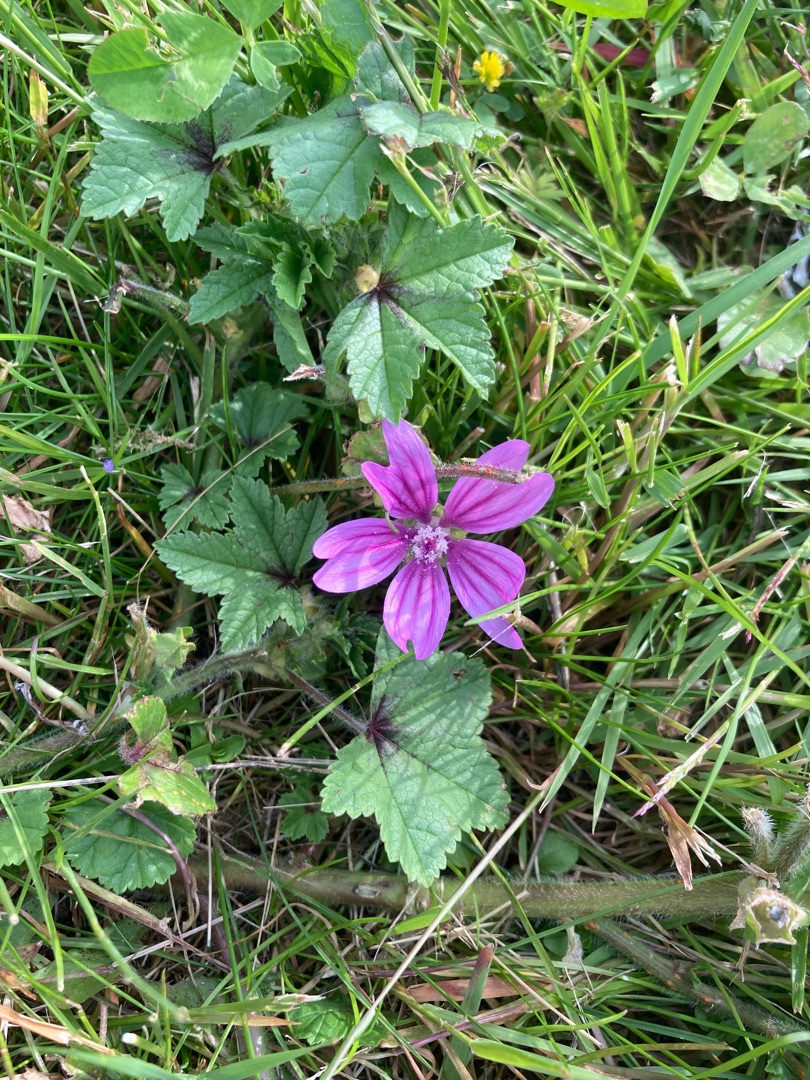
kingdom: Plantae
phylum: Tracheophyta
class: Magnoliopsida
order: Malvales
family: Malvaceae
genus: Malva
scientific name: Malva sylvestris
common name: Almindelig katost
